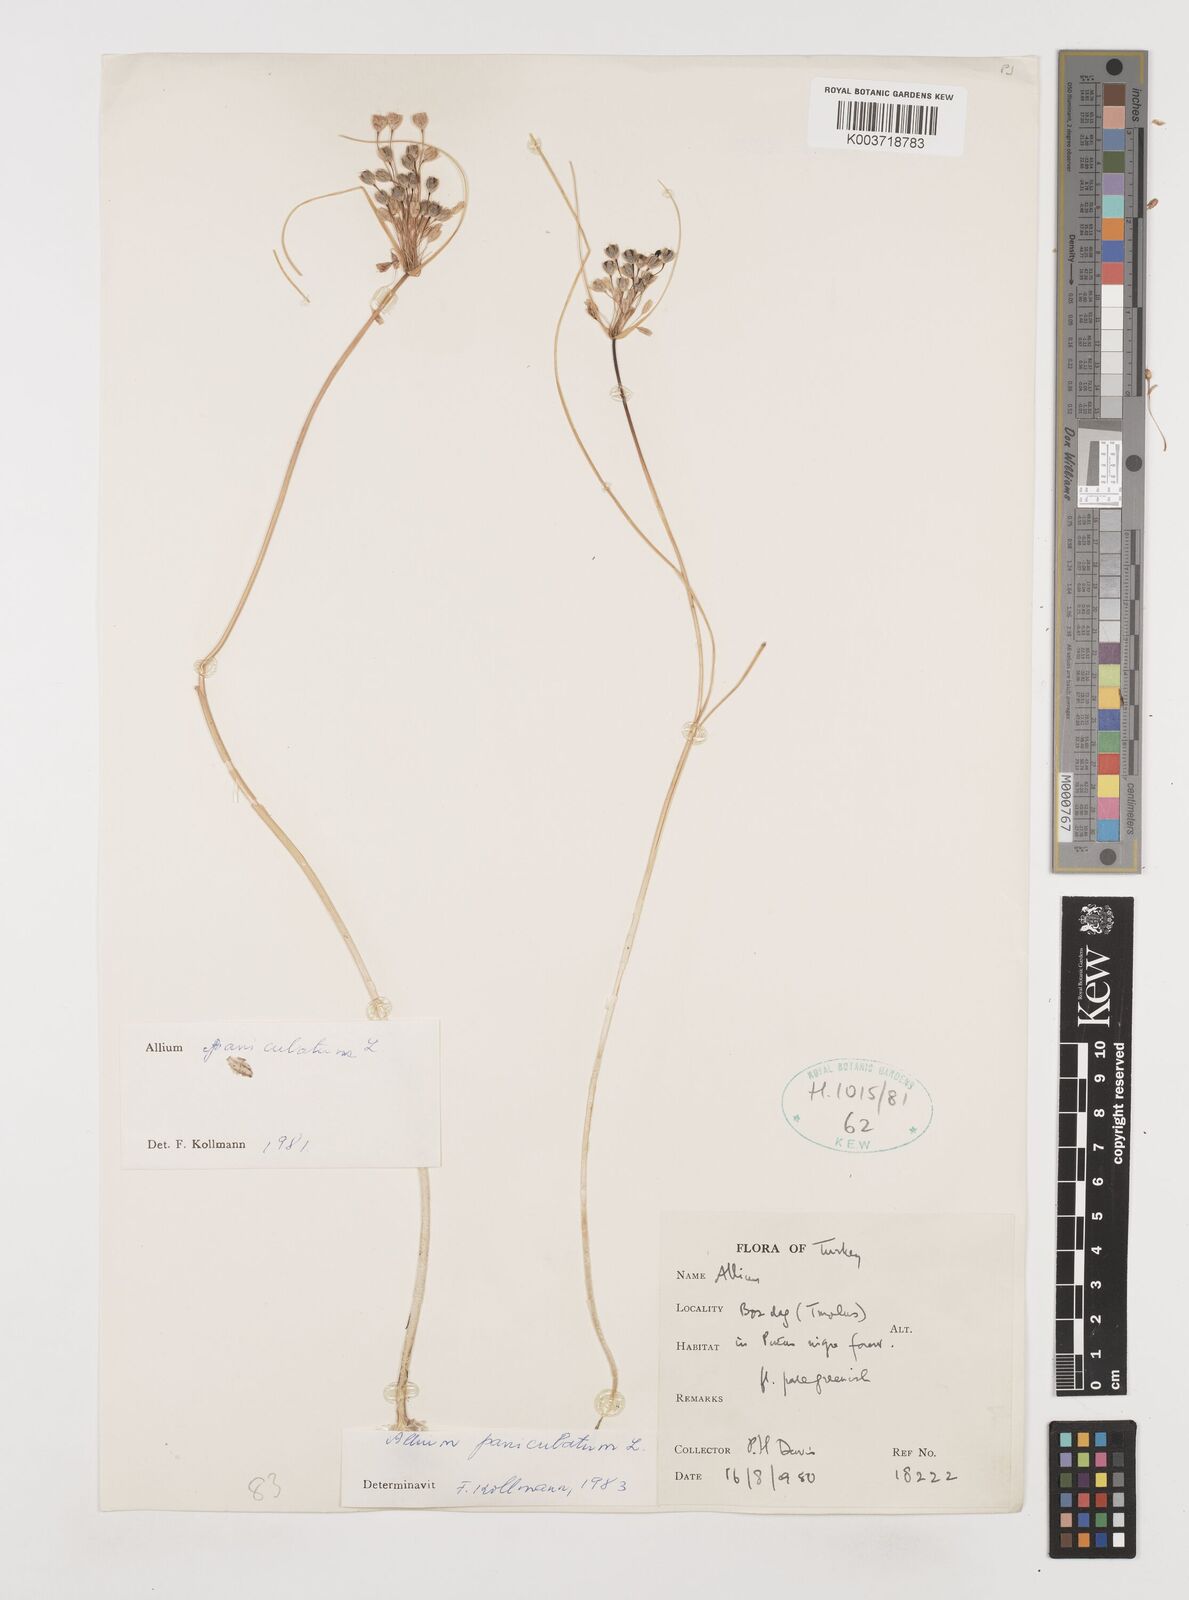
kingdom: Plantae
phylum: Tracheophyta
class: Liliopsida
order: Asparagales
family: Amaryllidaceae
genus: Allium
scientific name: Allium paniculatum
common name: Pale garlic
